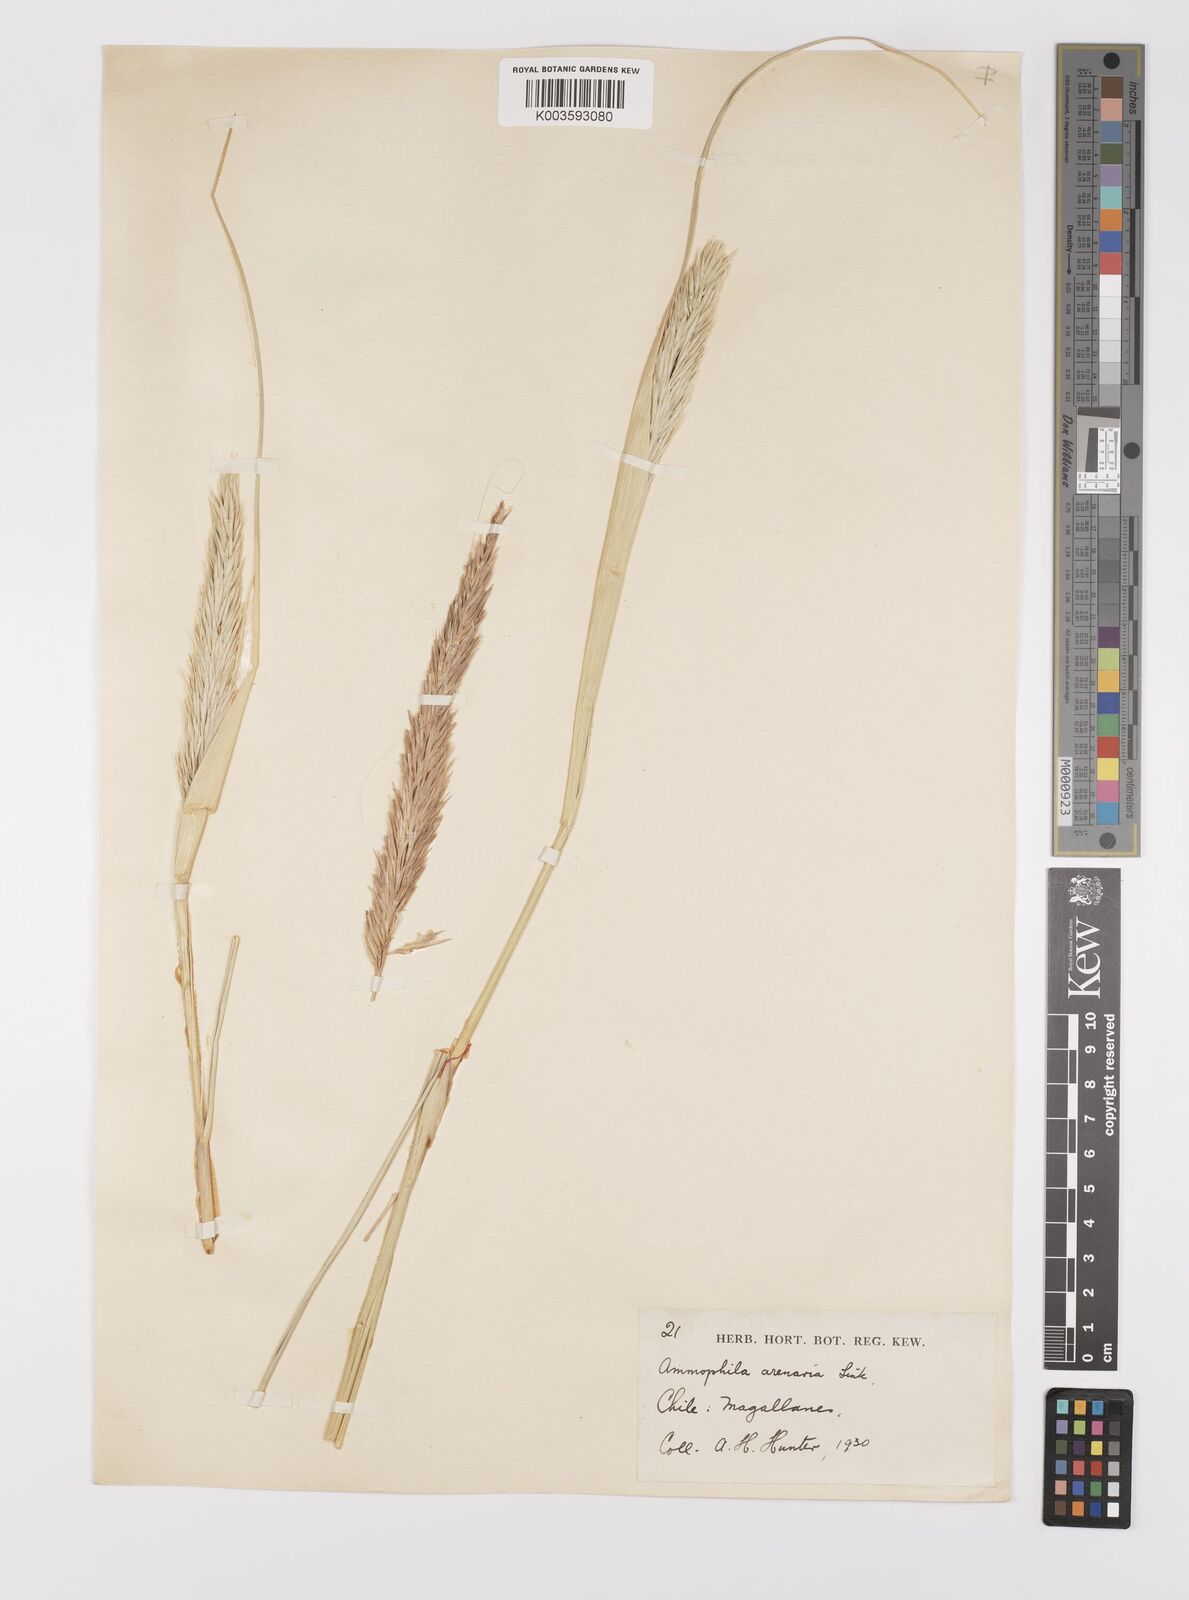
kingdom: Animalia
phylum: Arthropoda
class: Insecta
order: Hymenoptera
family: Sphecidae
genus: Ammophila
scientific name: Ammophila
